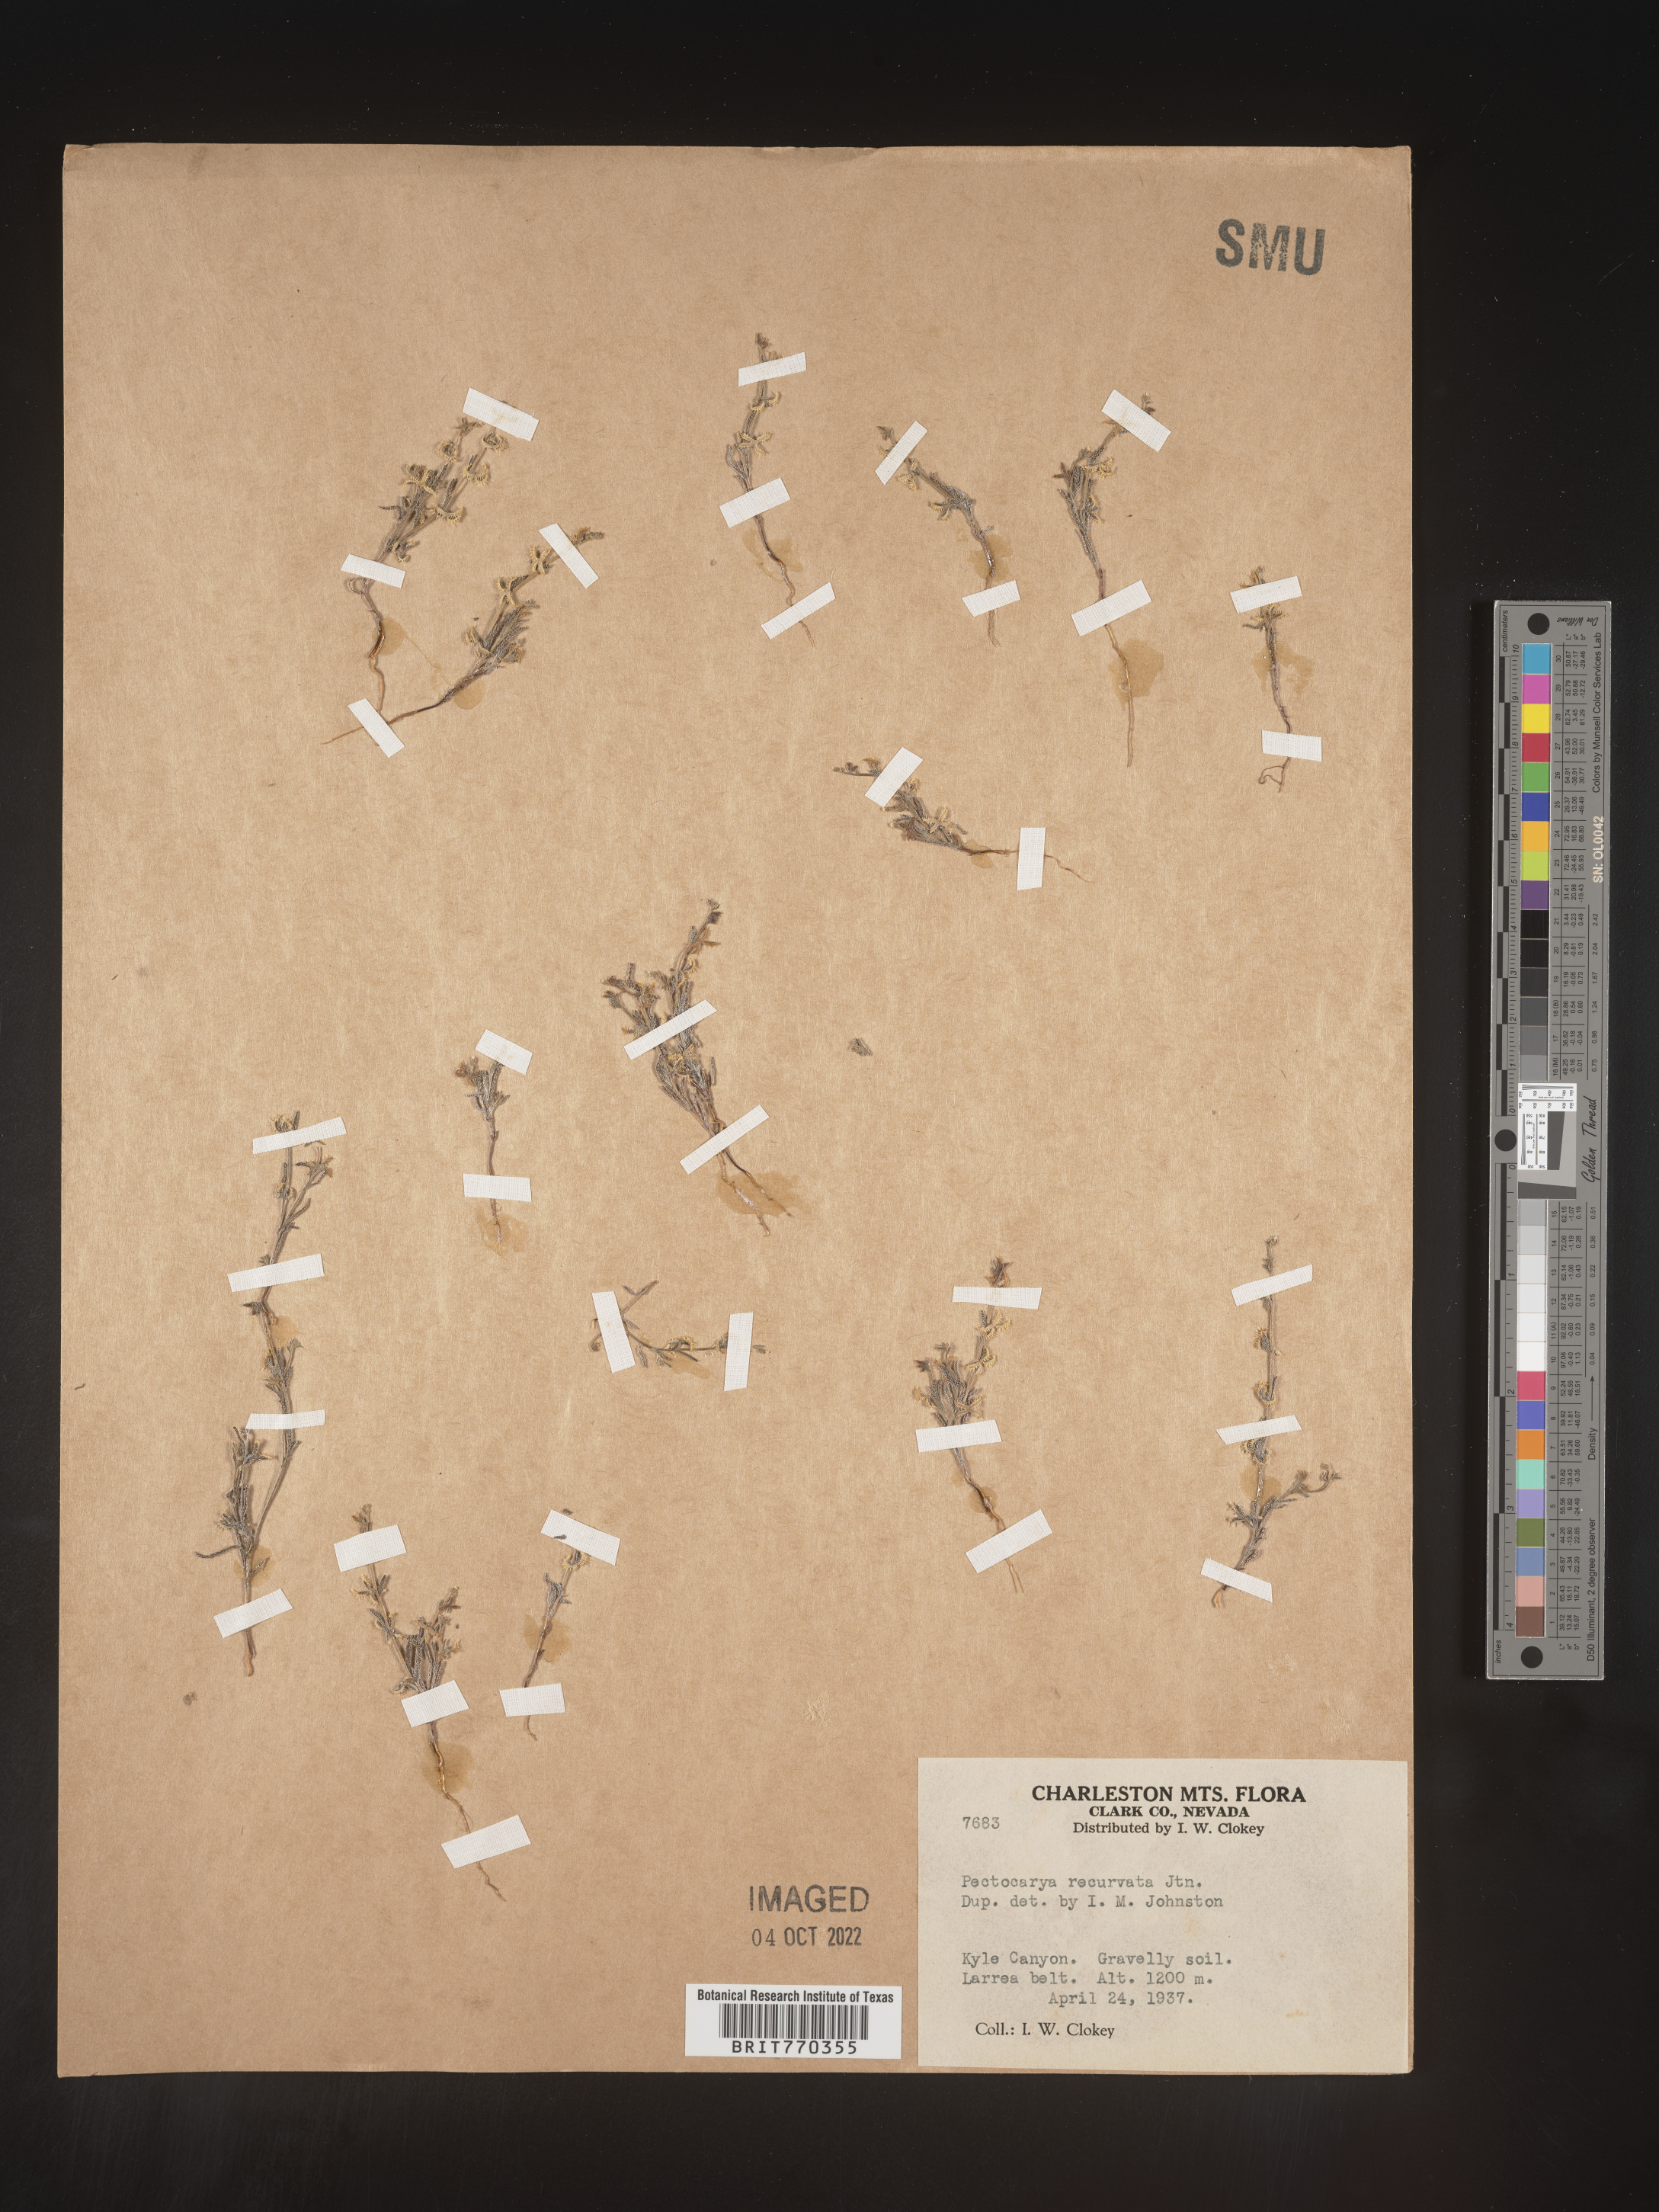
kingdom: Plantae
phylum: Tracheophyta
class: Magnoliopsida
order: Boraginales
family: Boraginaceae
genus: Pectocarya
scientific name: Pectocarya
